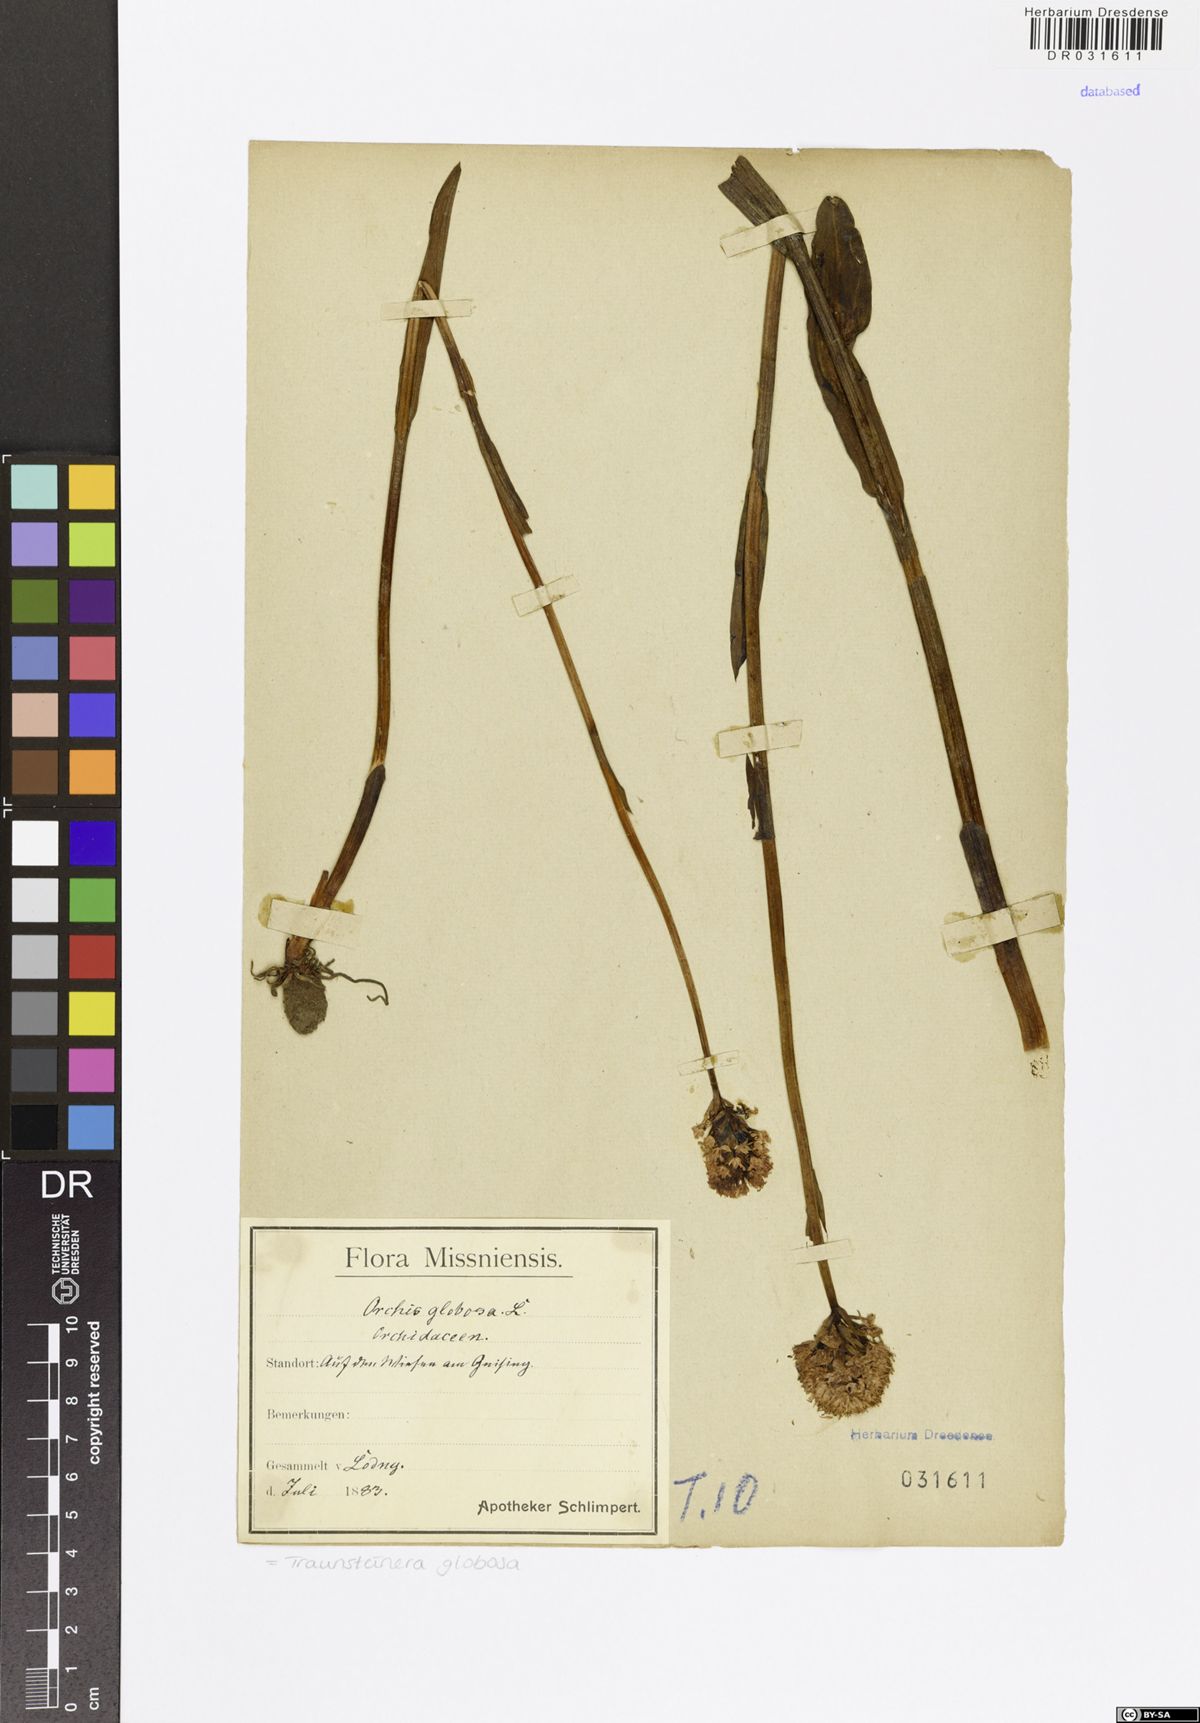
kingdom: Plantae
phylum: Tracheophyta
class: Liliopsida
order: Asparagales
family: Orchidaceae
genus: Traunsteinera
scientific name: Traunsteinera globosa
